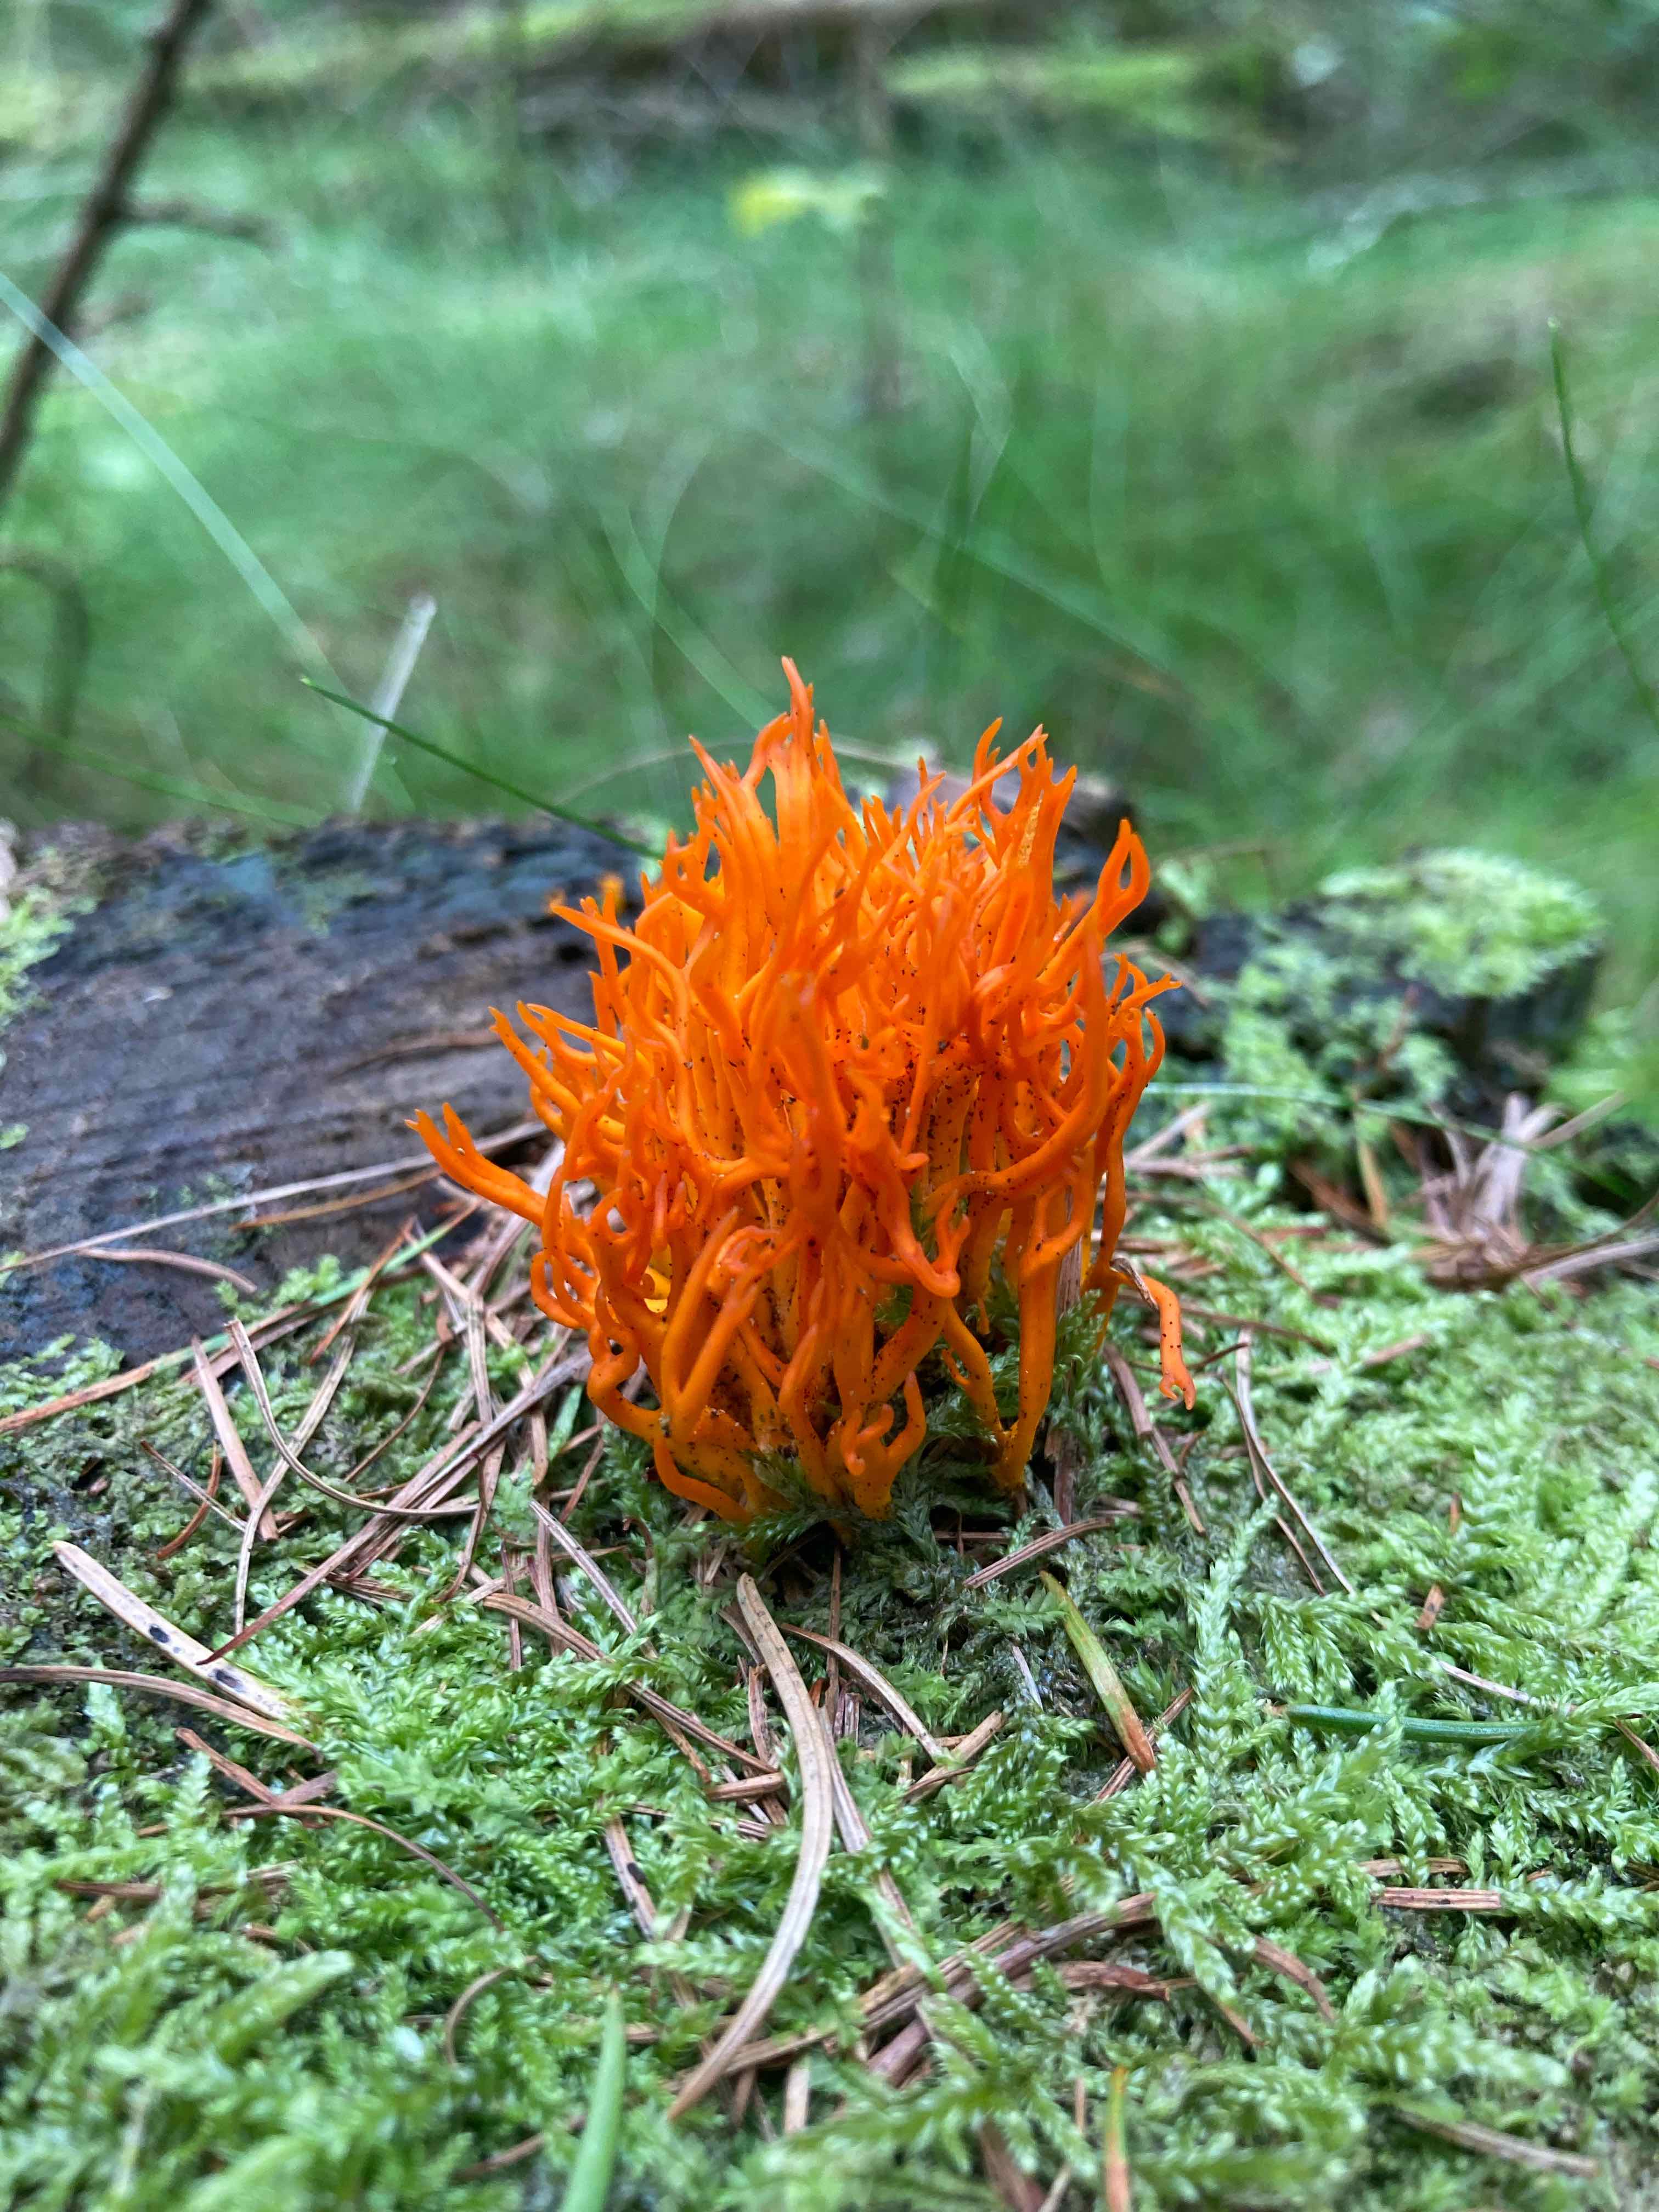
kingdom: Fungi
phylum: Basidiomycota
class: Dacrymycetes
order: Dacrymycetales
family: Dacrymycetaceae
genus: Calocera
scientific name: Calocera viscosa
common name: almindelig guldgaffel
